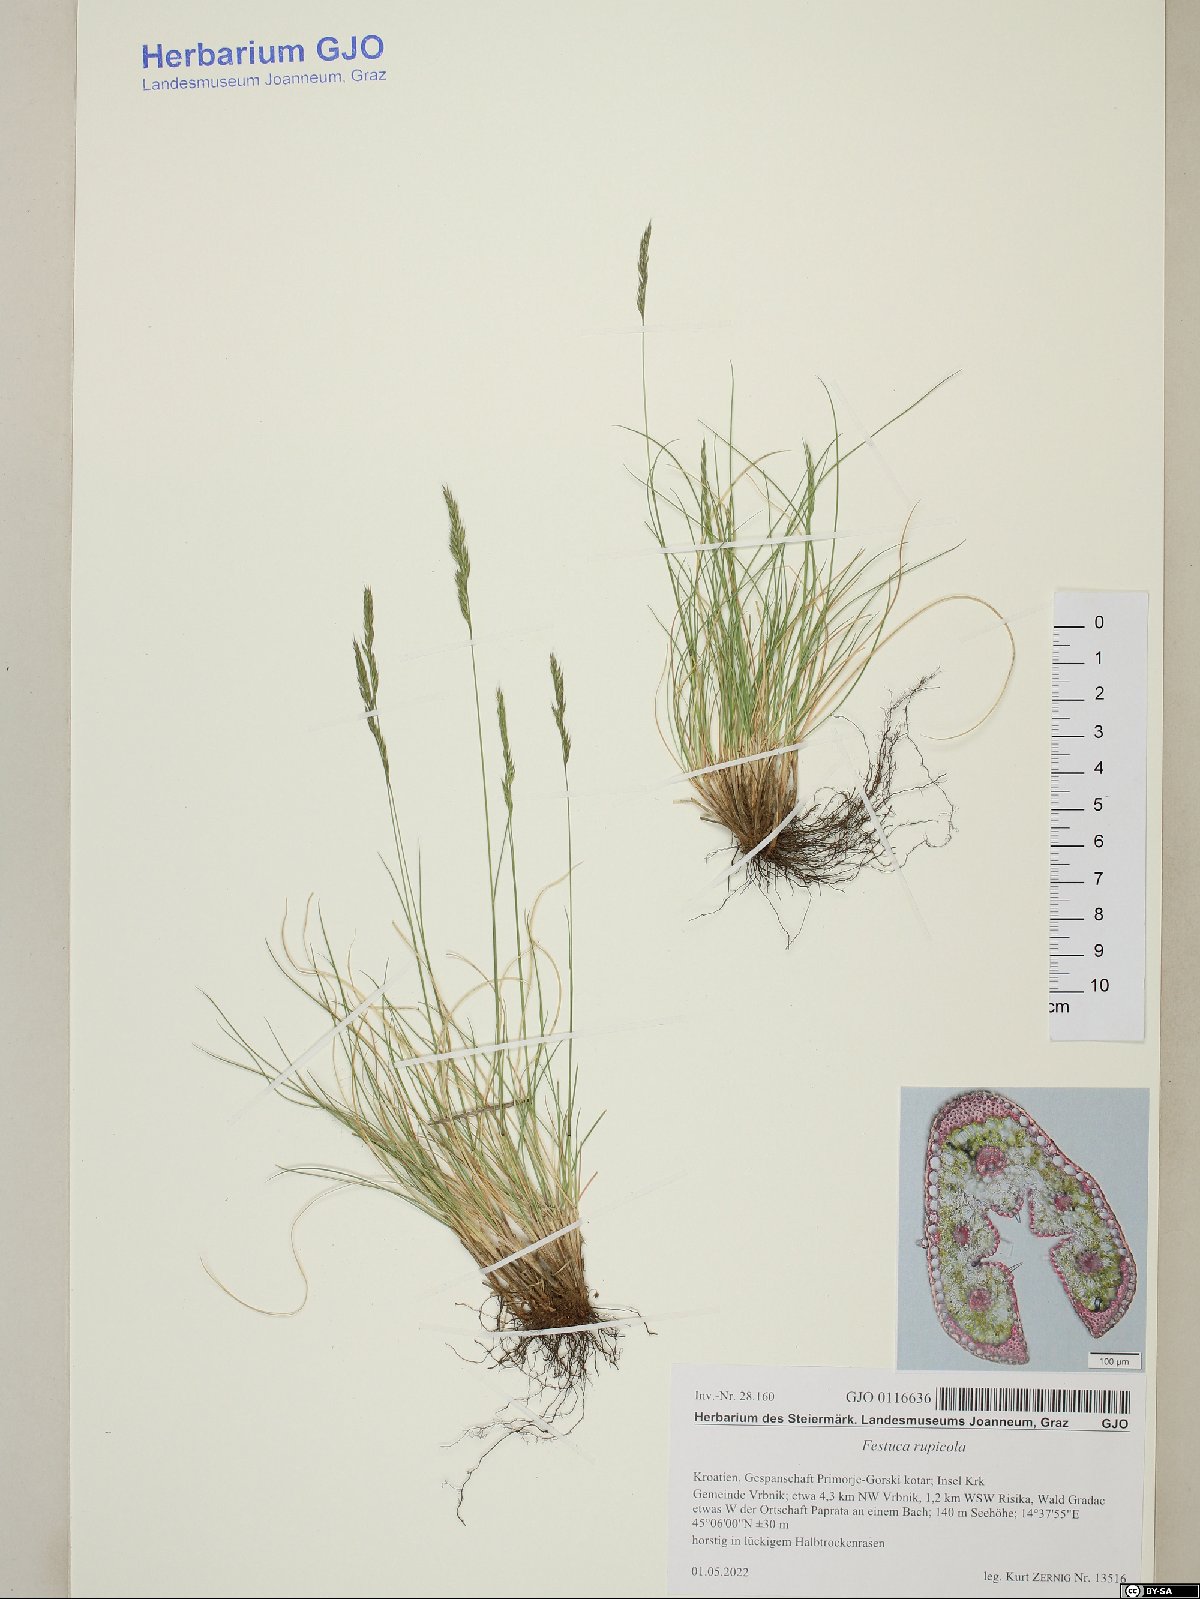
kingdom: Plantae
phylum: Tracheophyta
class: Liliopsida
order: Poales
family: Poaceae
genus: Festuca
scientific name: Festuca rupicola
